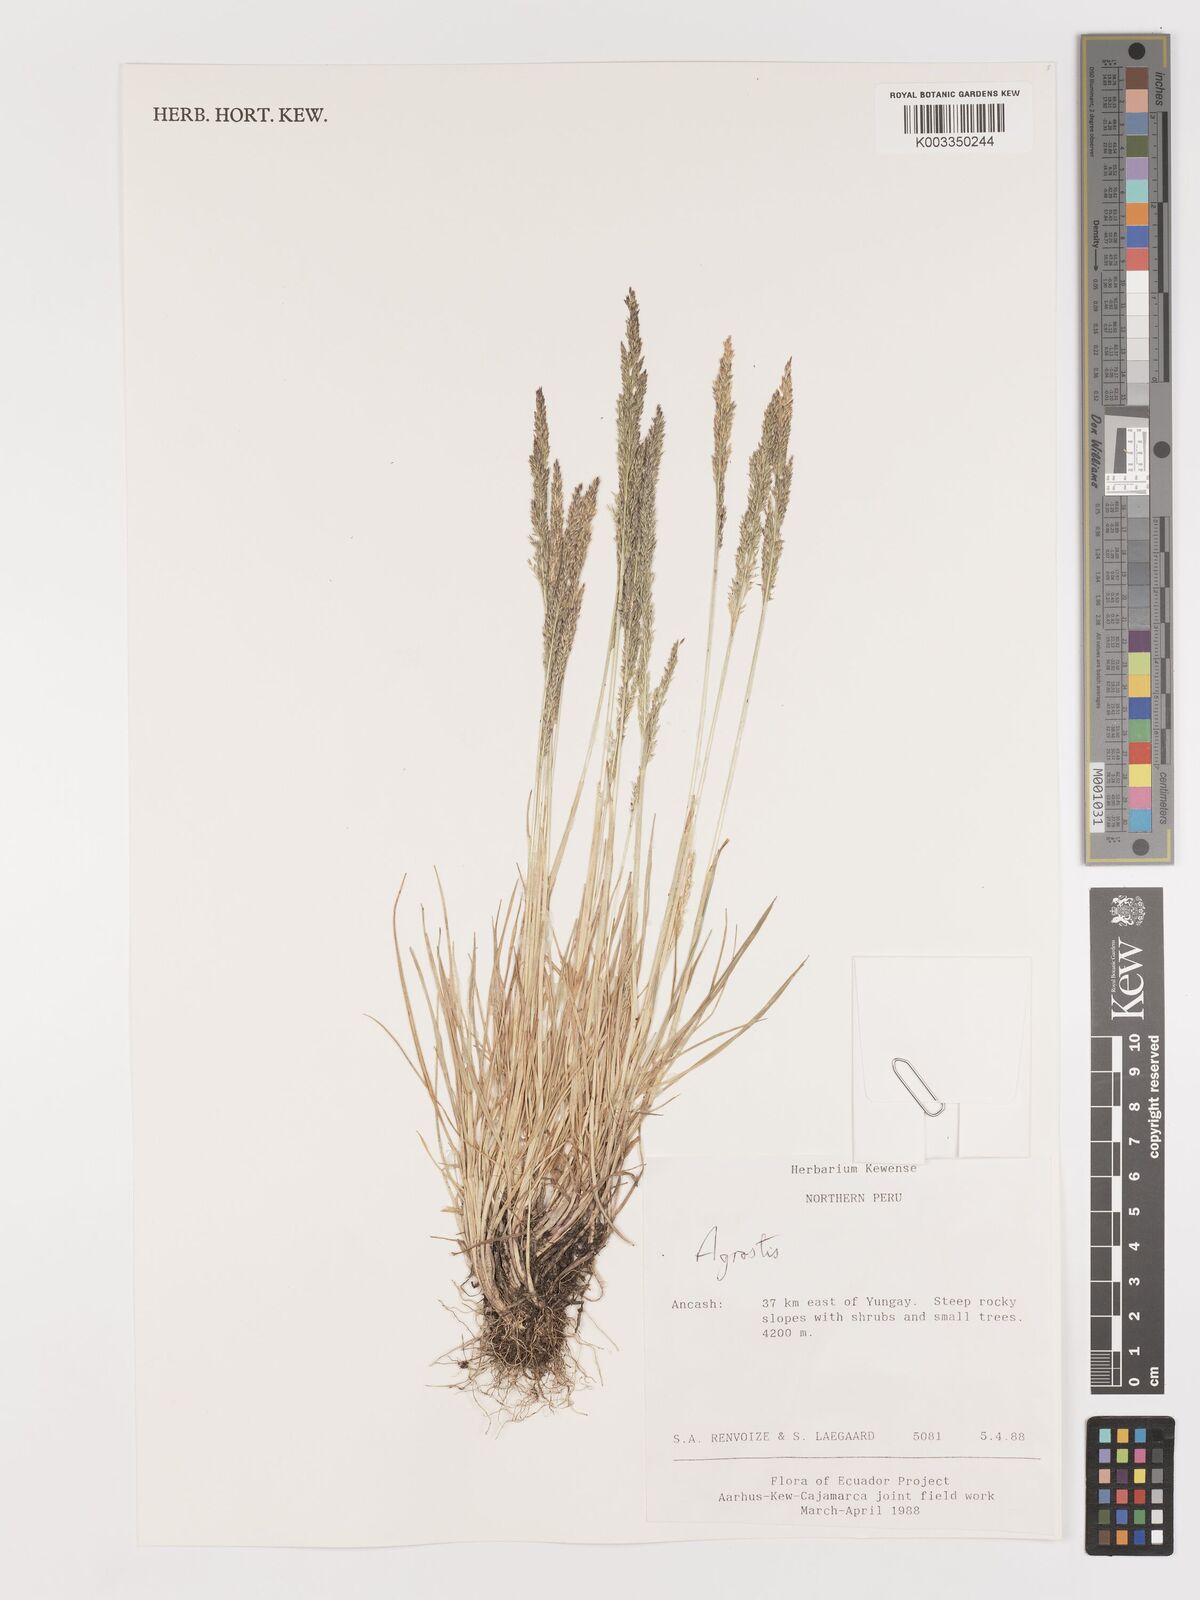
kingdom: Plantae
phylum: Tracheophyta
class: Liliopsida
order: Poales
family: Poaceae
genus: Agrostis
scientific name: Agrostis
